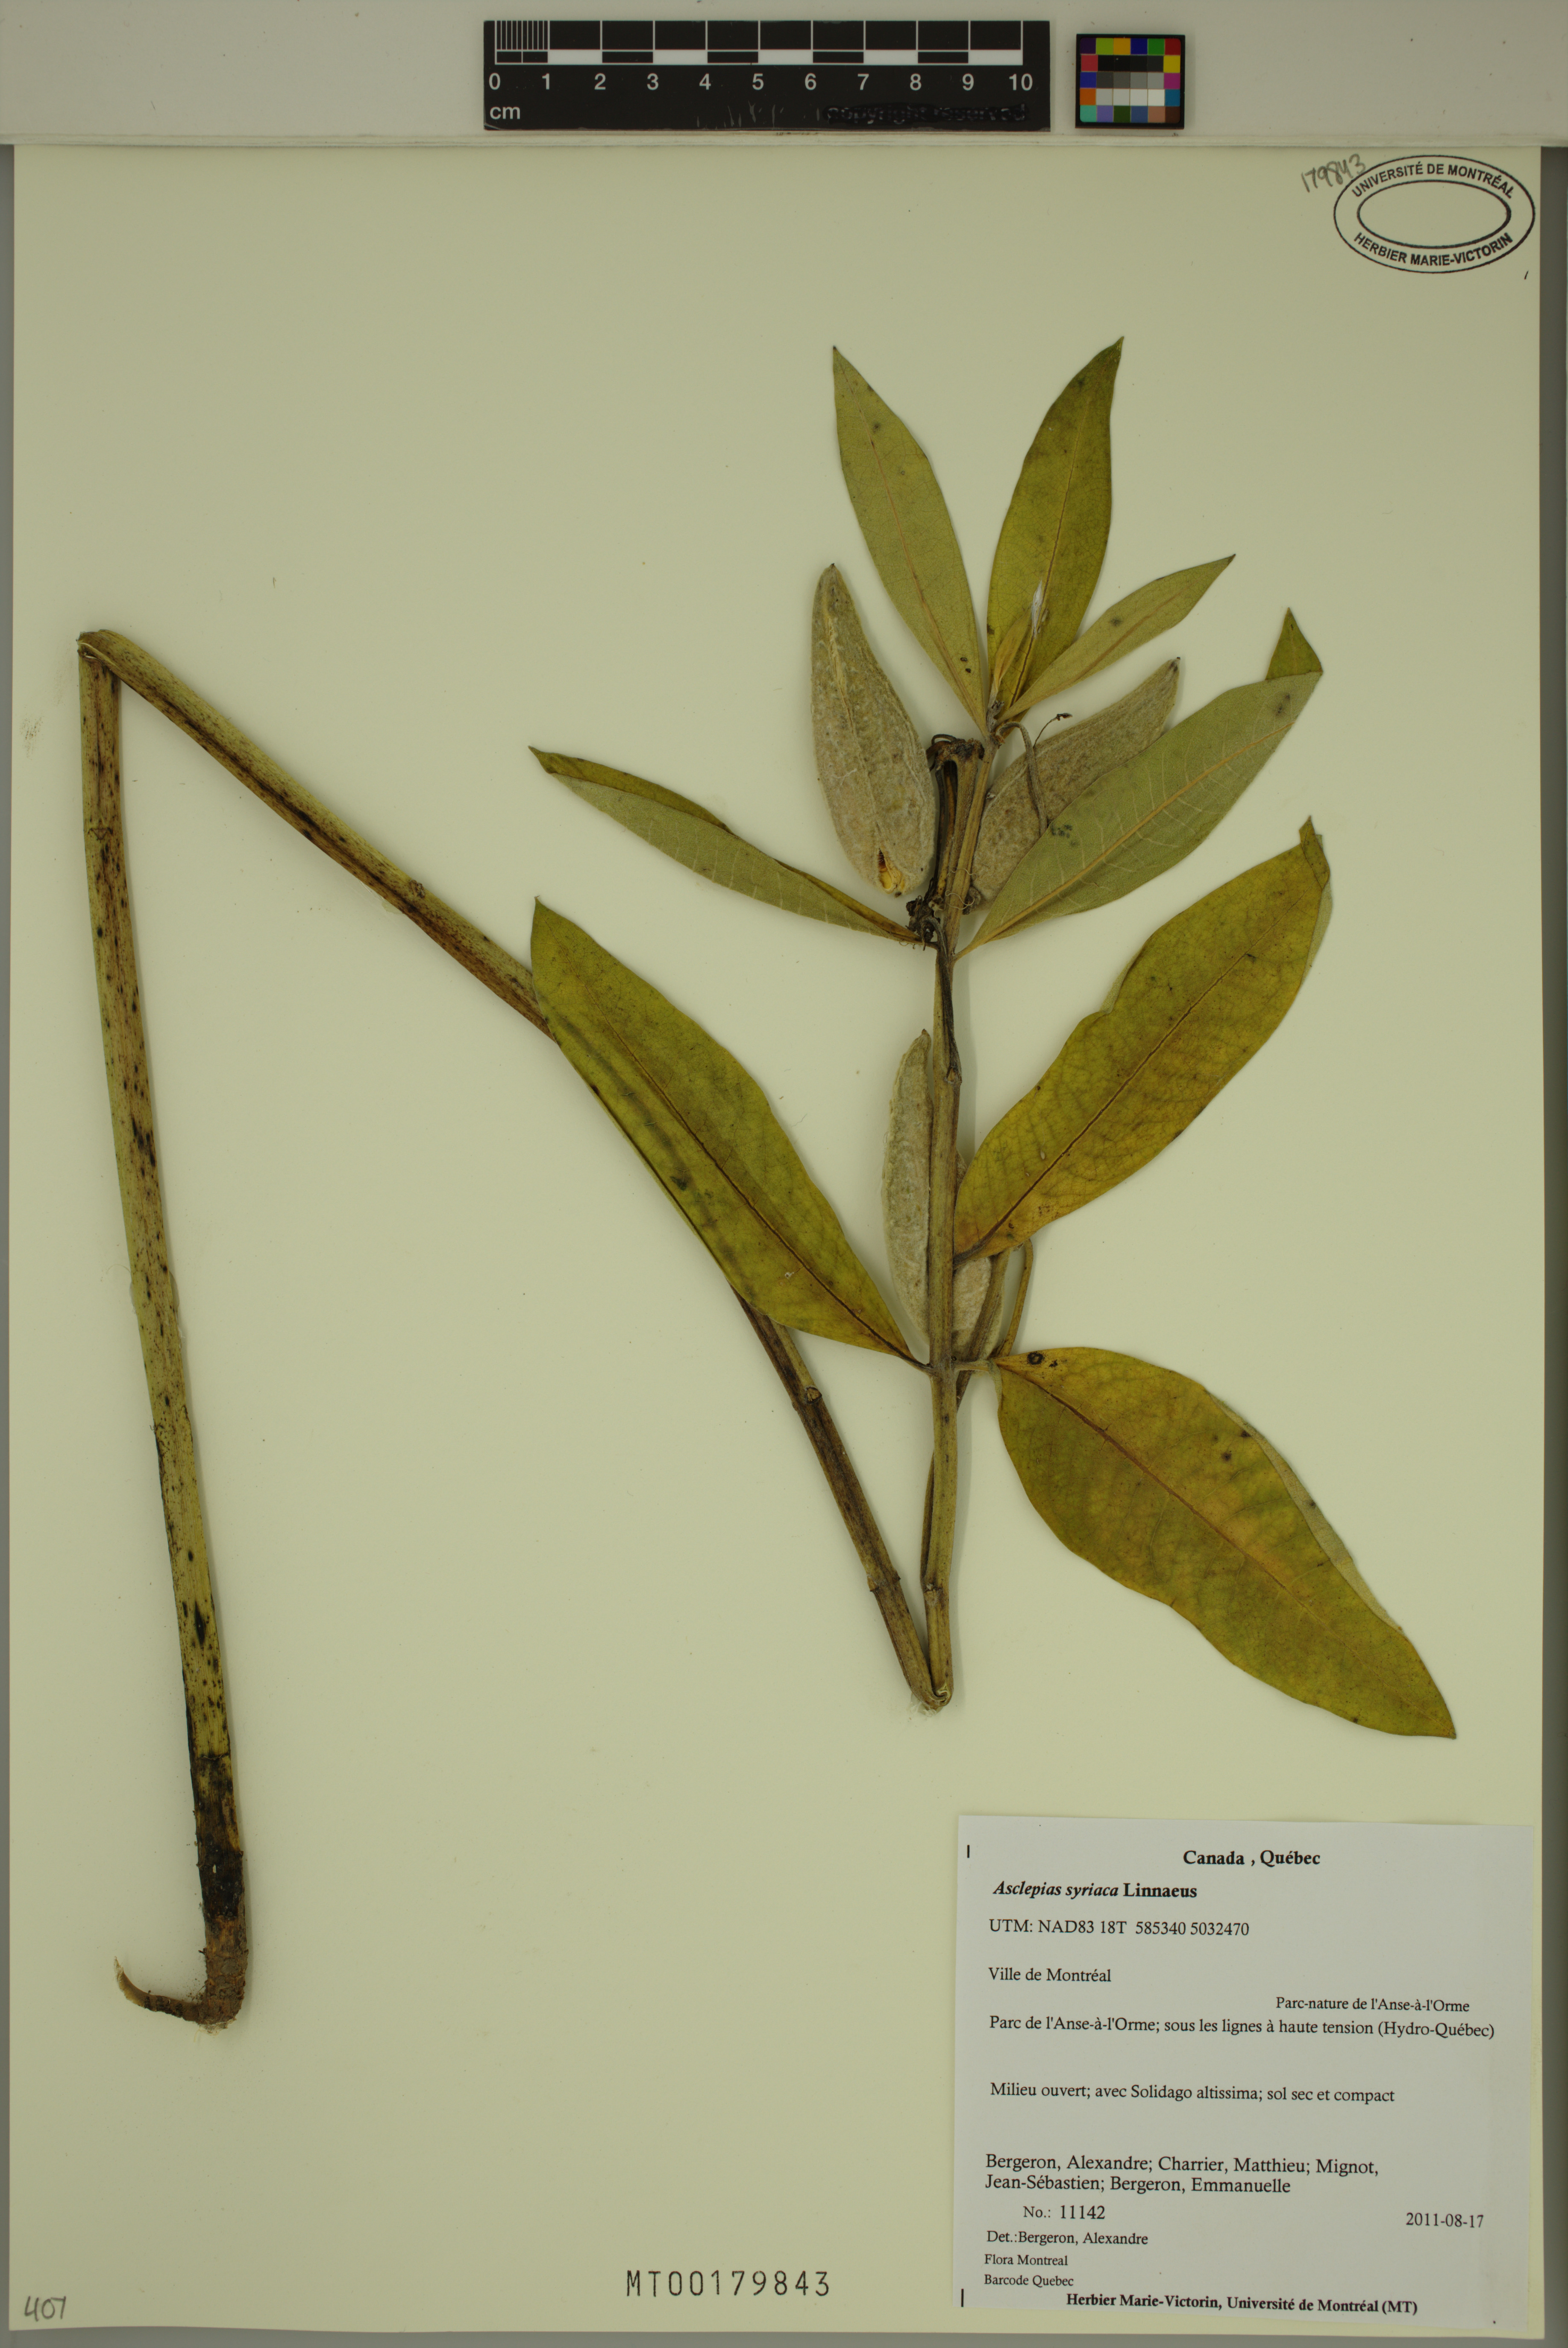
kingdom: Plantae
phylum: Tracheophyta
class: Magnoliopsida
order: Gentianales
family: Apocynaceae
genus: Asclepias
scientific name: Asclepias syriaca
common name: Common milkweed
